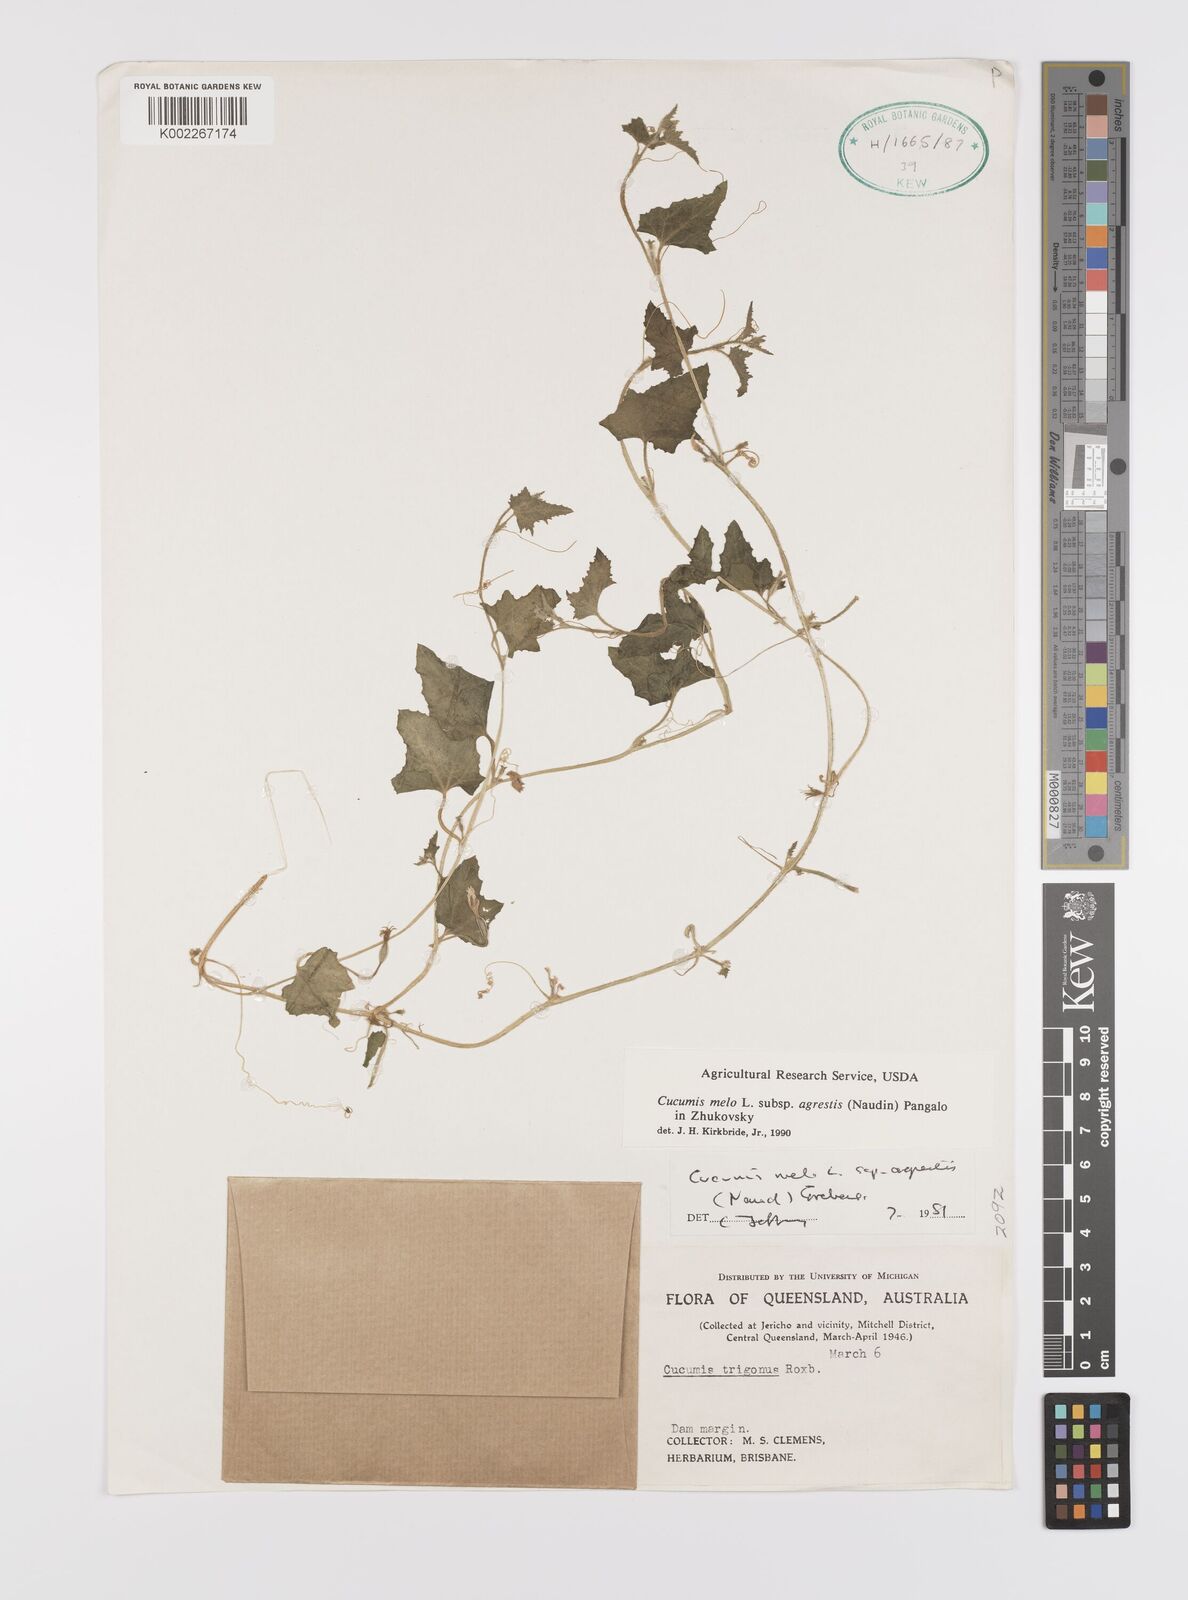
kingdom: Plantae
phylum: Tracheophyta
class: Magnoliopsida
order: Cucurbitales
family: Cucurbitaceae
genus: Cucumis
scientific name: Cucumis melo
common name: Melon
